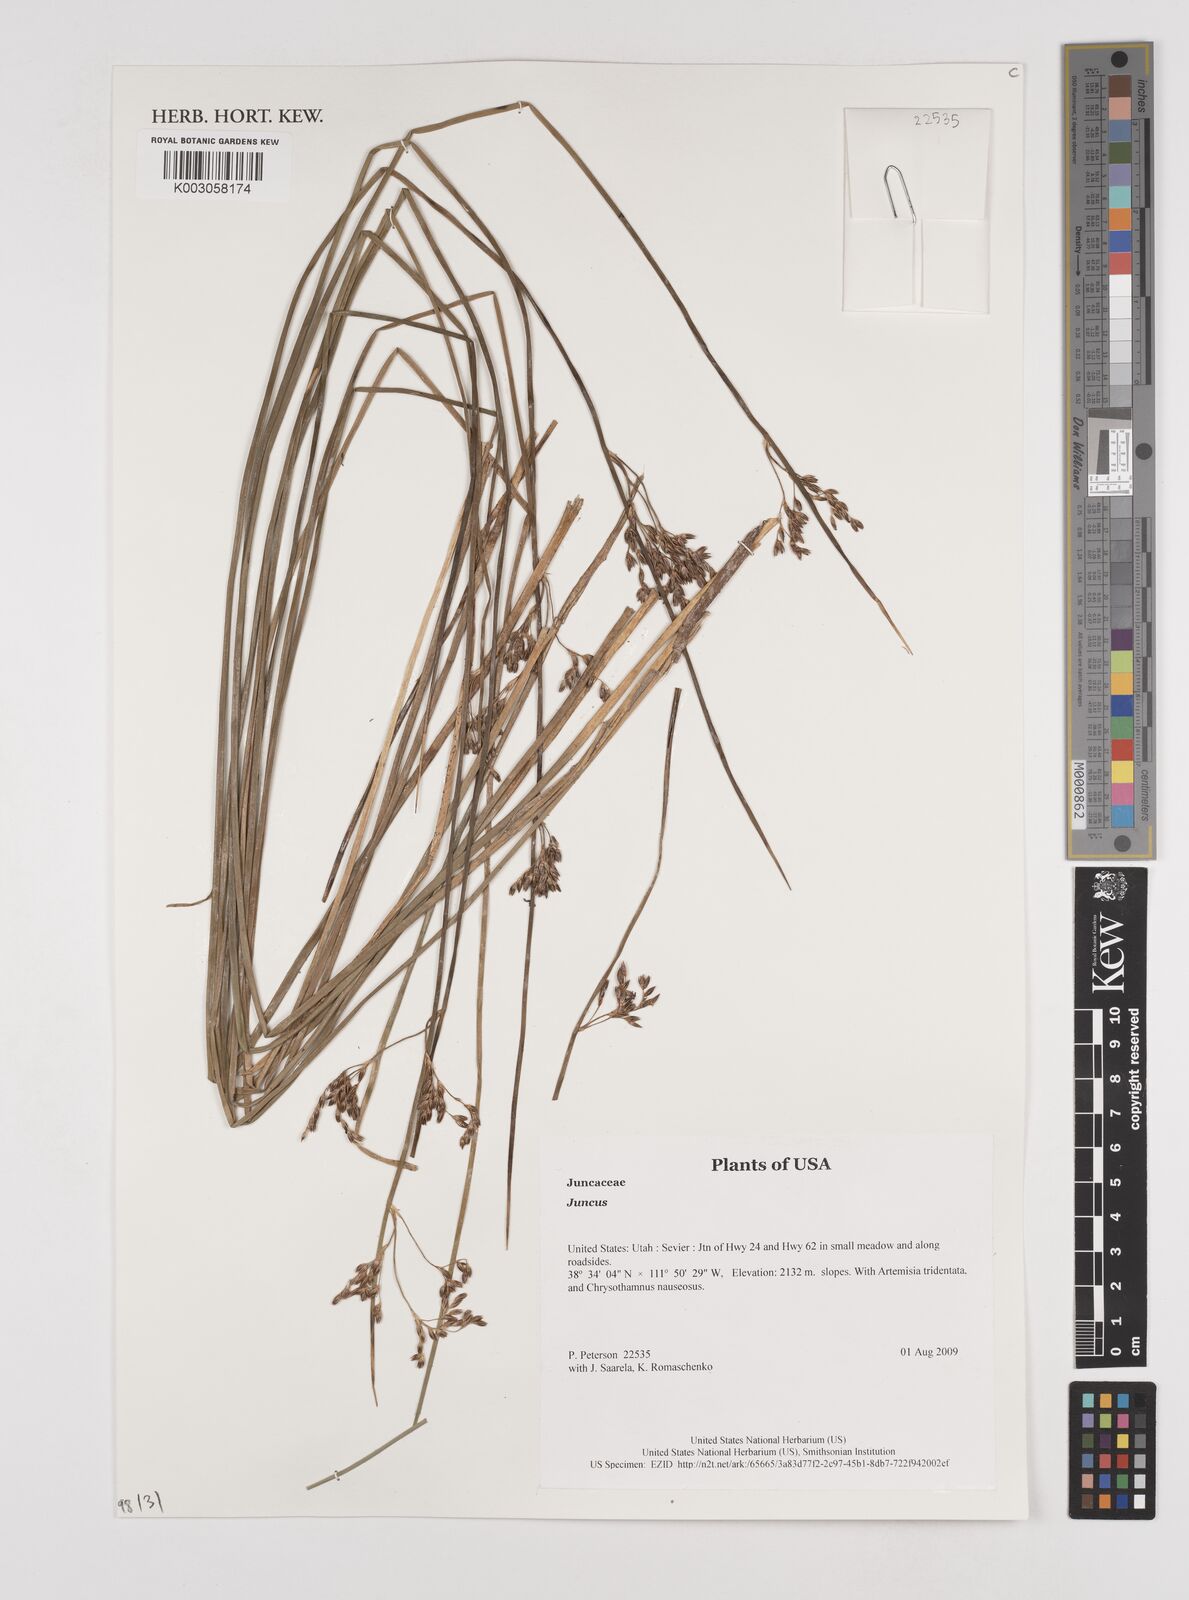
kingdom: Plantae
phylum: Tracheophyta
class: Liliopsida
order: Poales
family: Juncaceae
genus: Juncus
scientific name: Juncus
